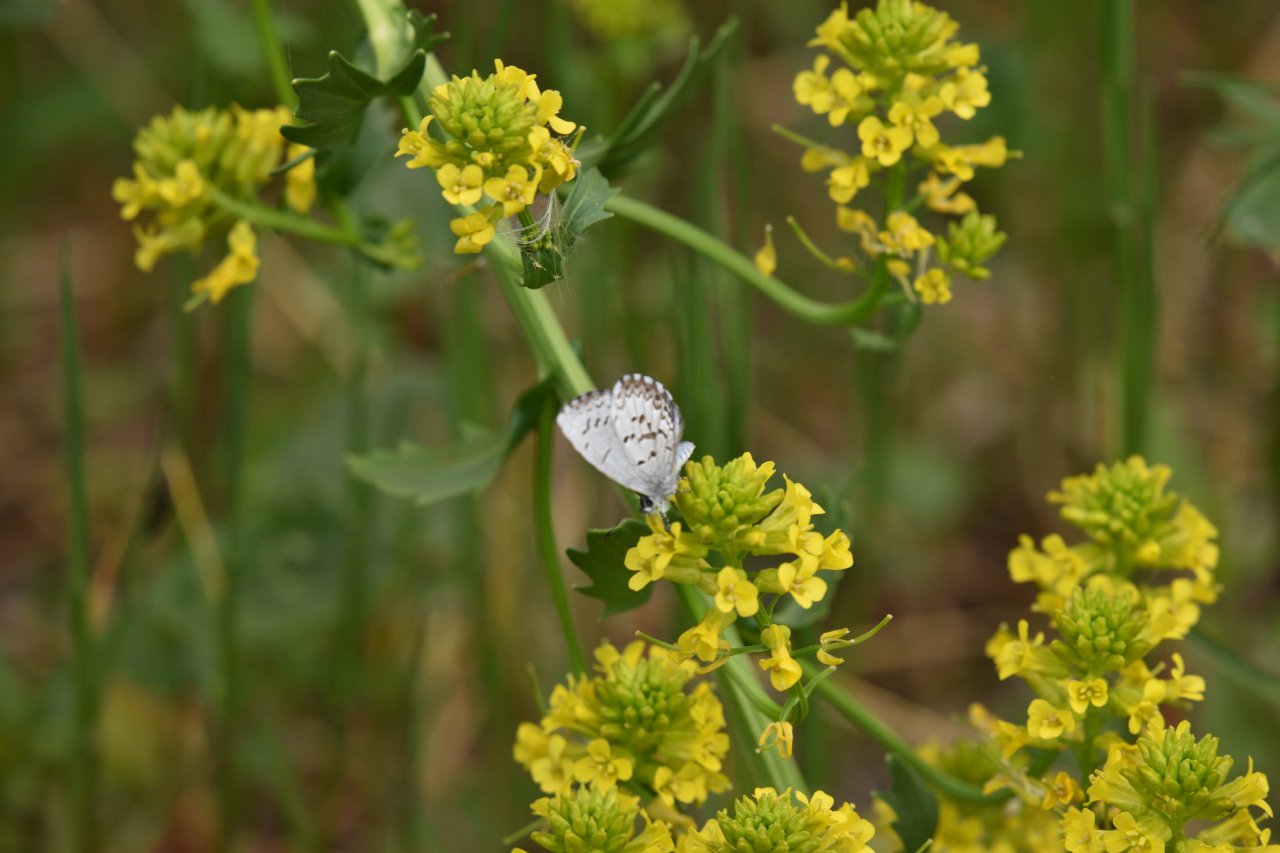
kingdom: Animalia
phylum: Arthropoda
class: Insecta
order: Lepidoptera
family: Lycaenidae
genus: Celastrina
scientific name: Celastrina lucia
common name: Northern Spring Azure
